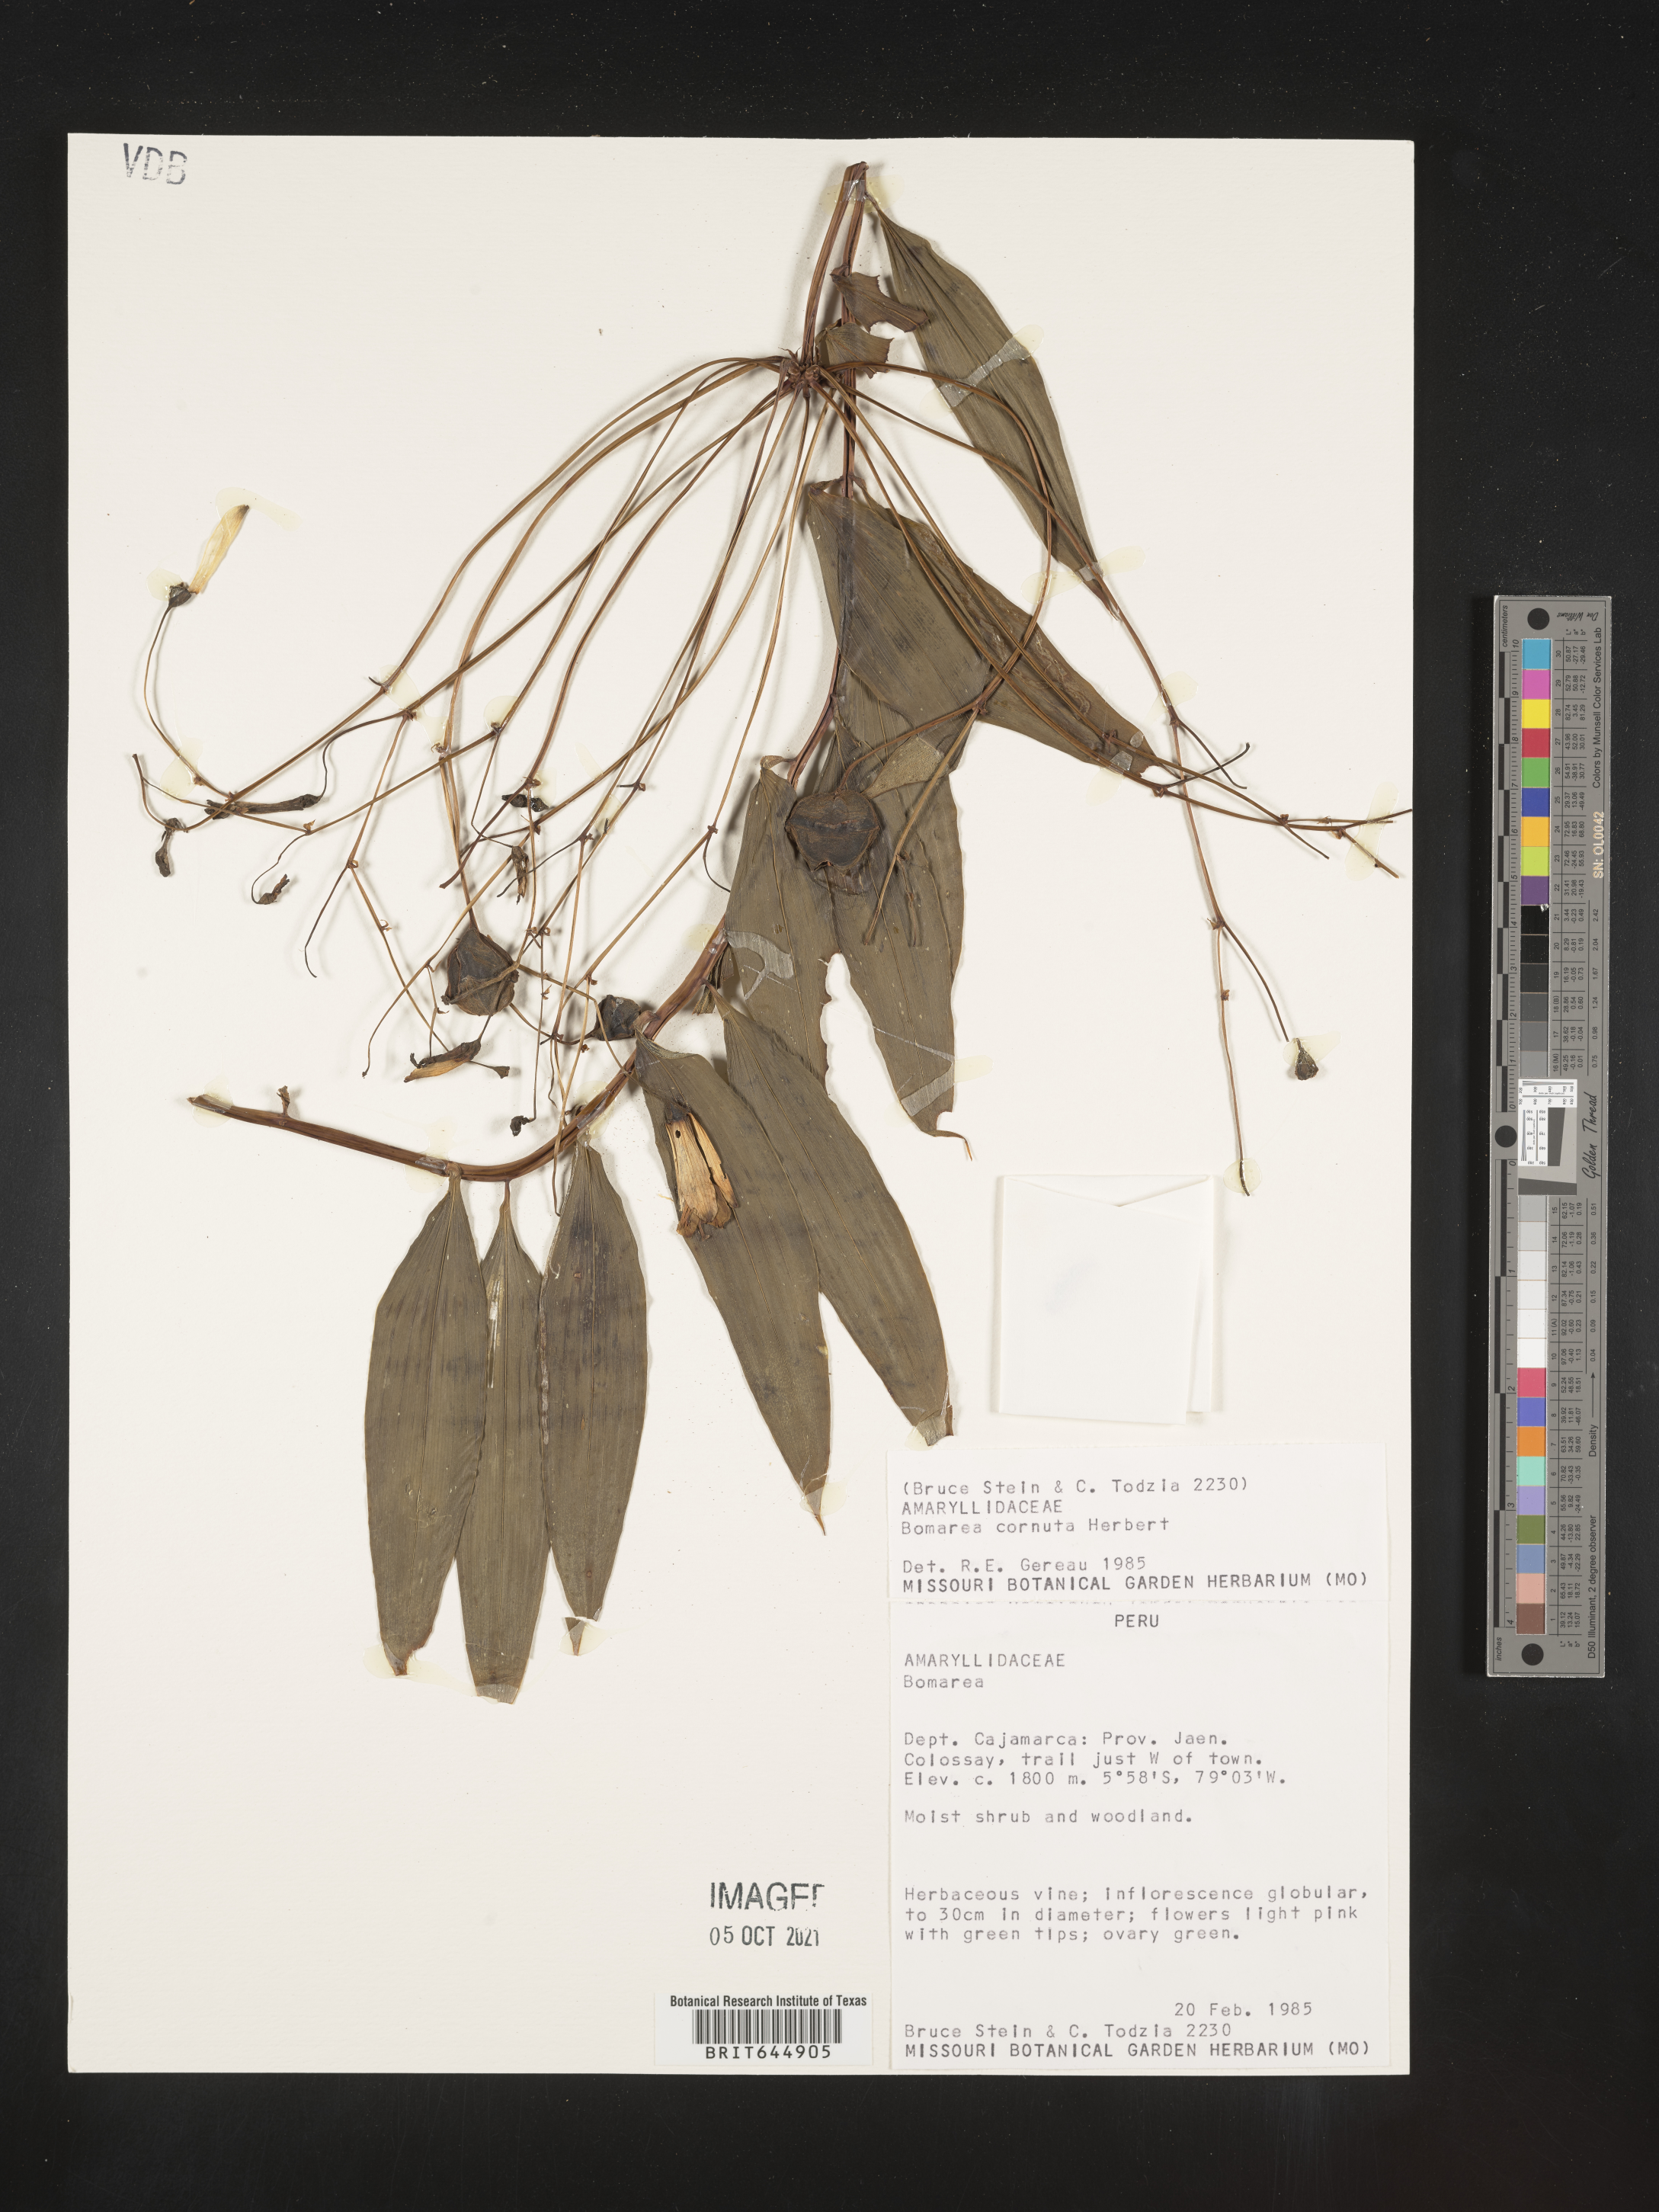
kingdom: Plantae
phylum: Tracheophyta
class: Liliopsida
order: Liliales
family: Alstroemeriaceae
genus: Bomarea
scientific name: Bomarea cornuta
